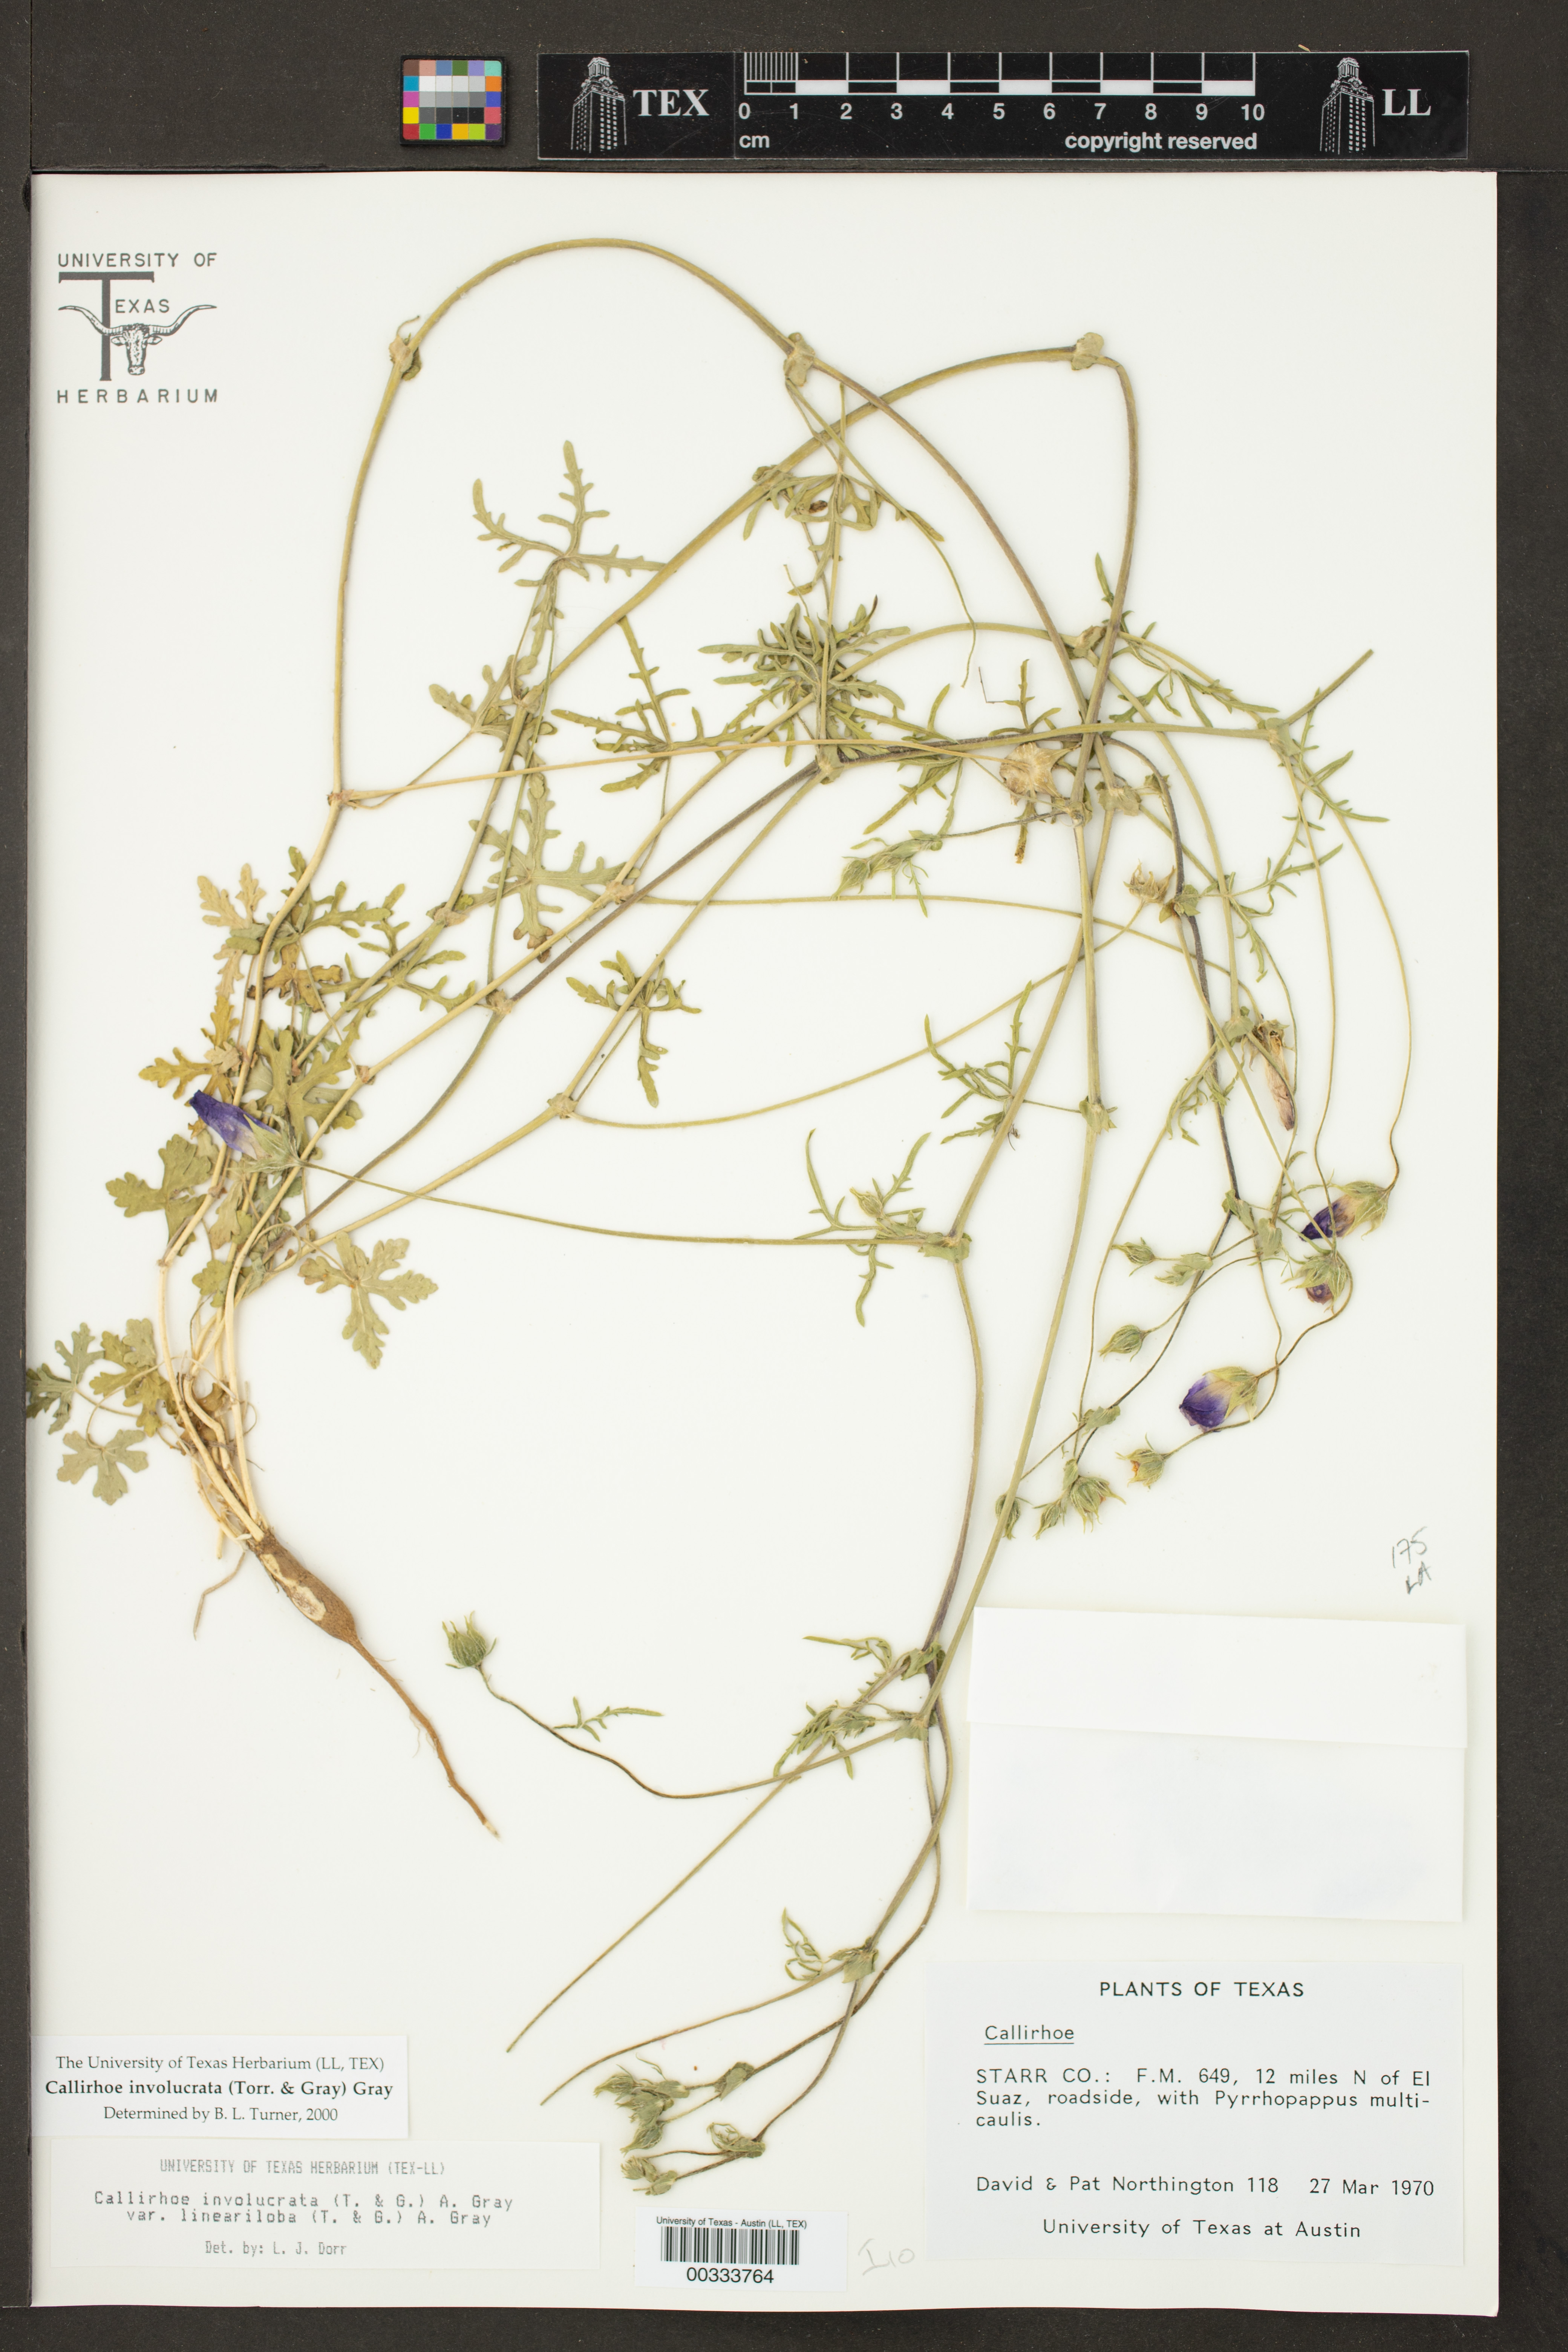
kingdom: Plantae
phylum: Tracheophyta
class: Magnoliopsida
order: Malvales
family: Malvaceae
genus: Callirhoe
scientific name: Callirhoe involucrata
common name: Purple poppy-mallow
